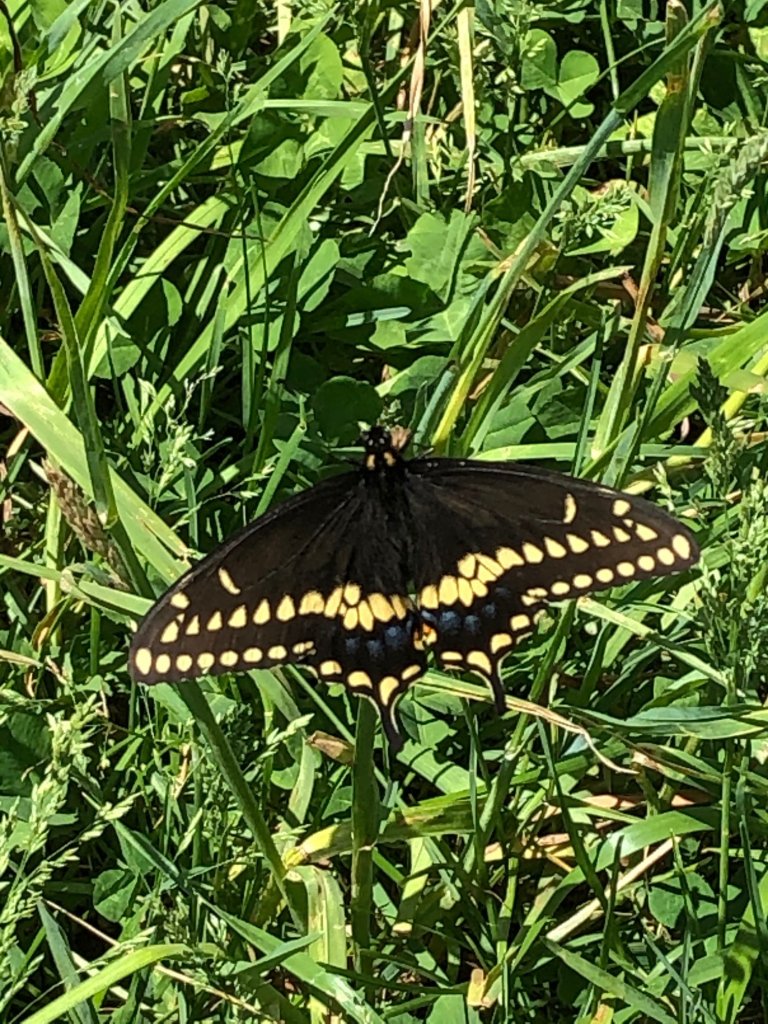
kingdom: Animalia
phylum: Arthropoda
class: Insecta
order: Lepidoptera
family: Papilionidae
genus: Papilio
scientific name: Papilio polyxenes
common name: Black Swallowtail
